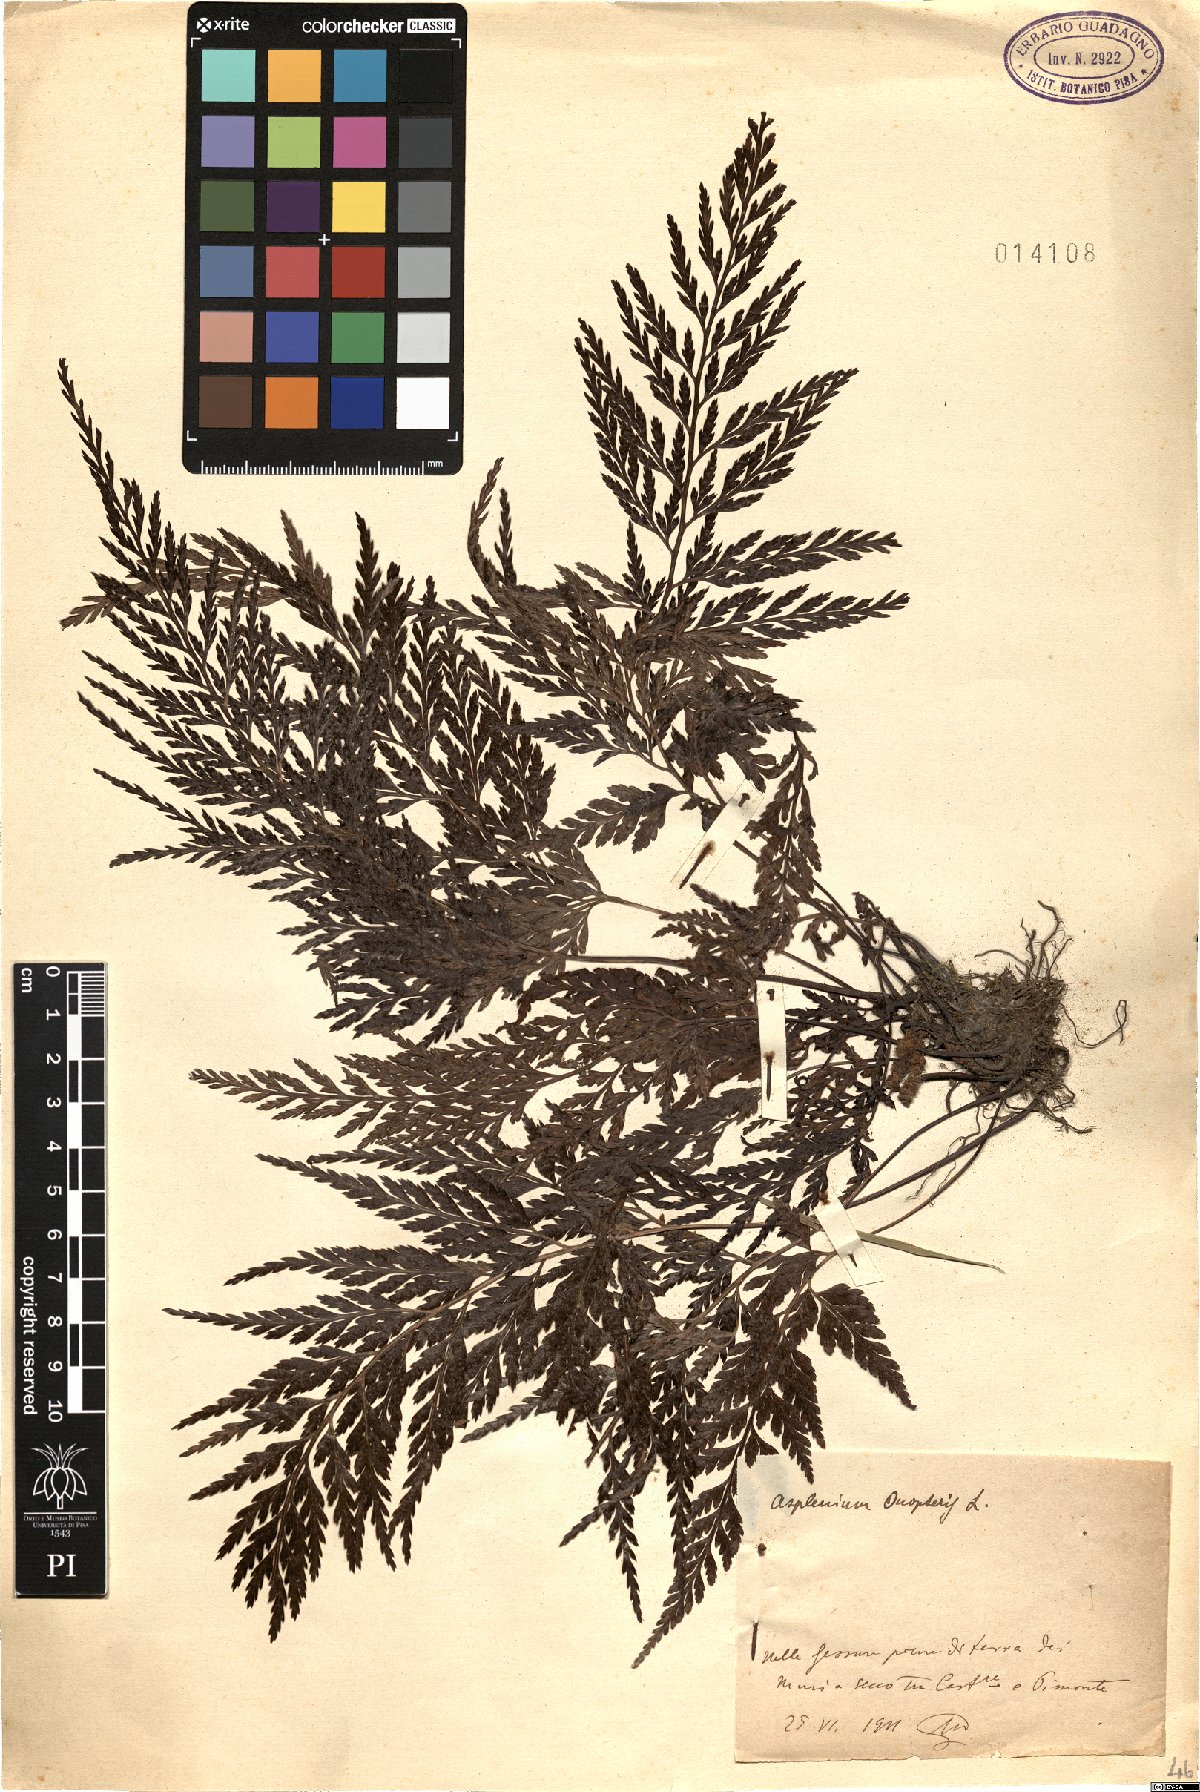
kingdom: Plantae
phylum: Tracheophyta
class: Polypodiopsida
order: Polypodiales
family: Aspleniaceae
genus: Asplenium
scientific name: Asplenium onopteris
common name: Irish spleenwort
